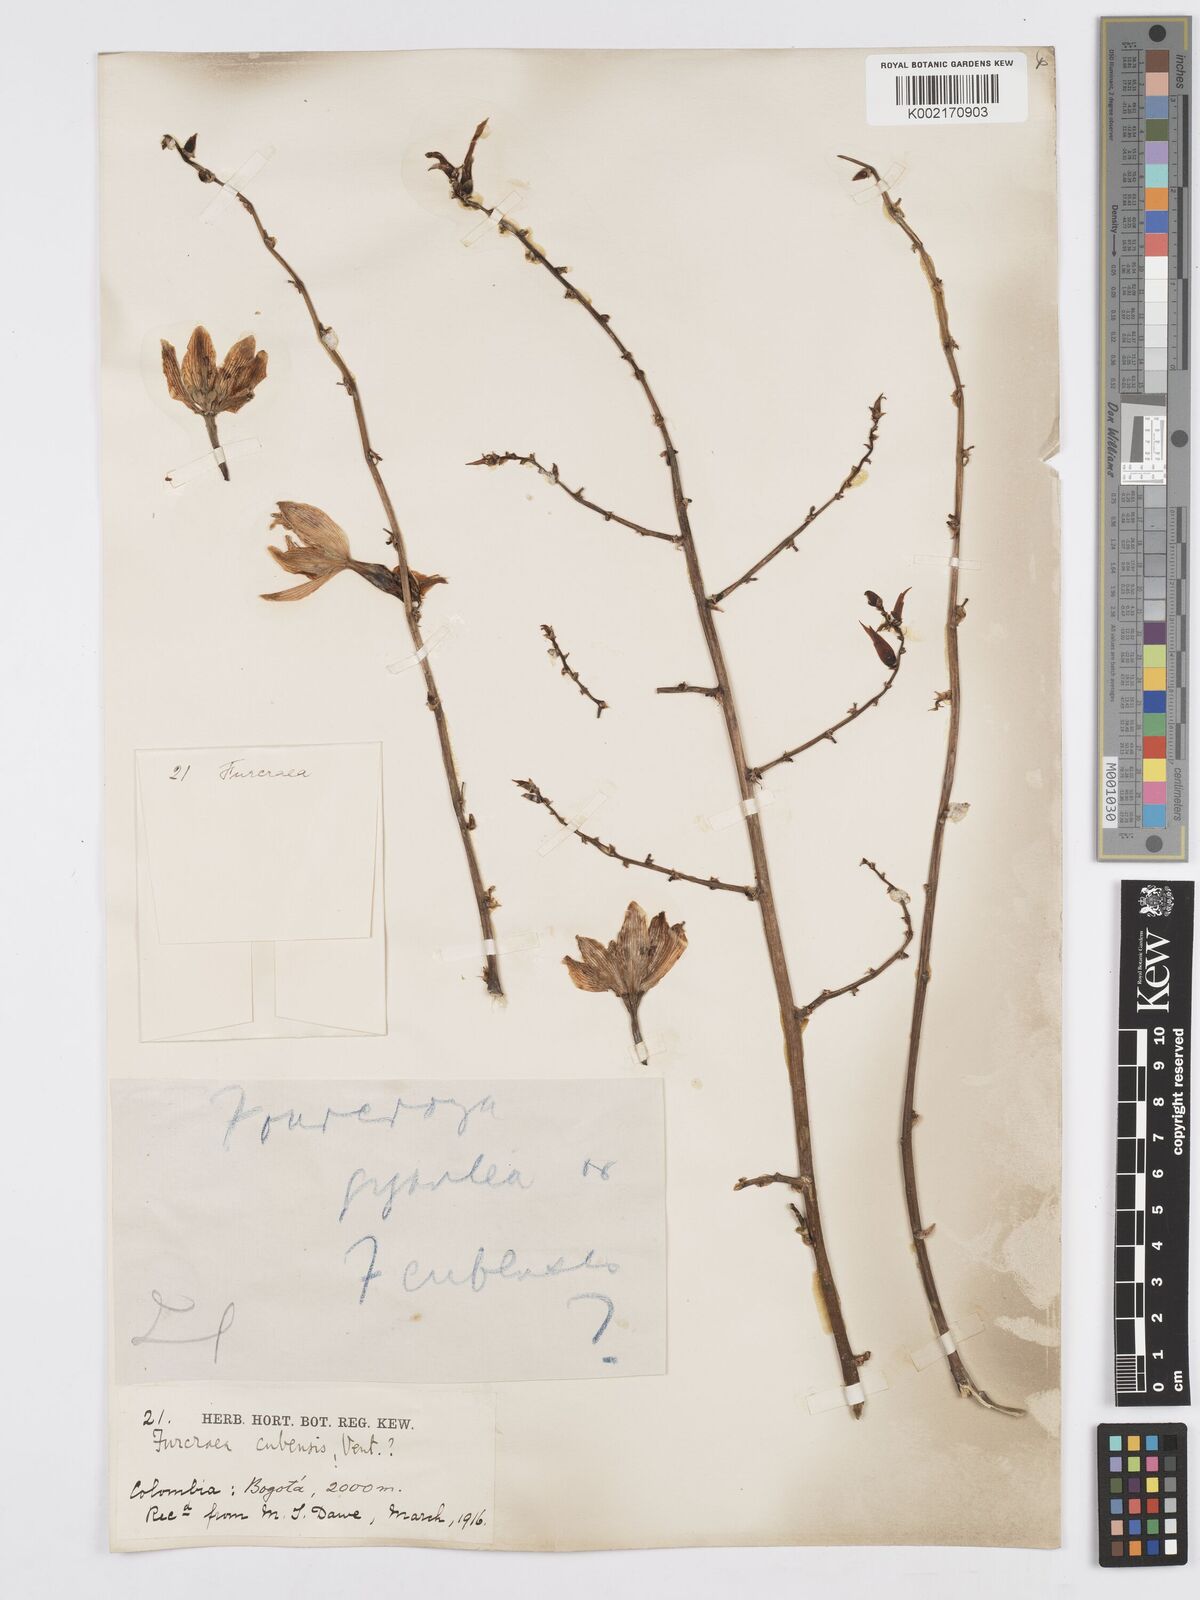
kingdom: Plantae
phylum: Tracheophyta
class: Liliopsida
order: Asparagales
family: Asparagaceae
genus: Furcraea
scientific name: Furcraea hexapetala
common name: Cuban-hemp
